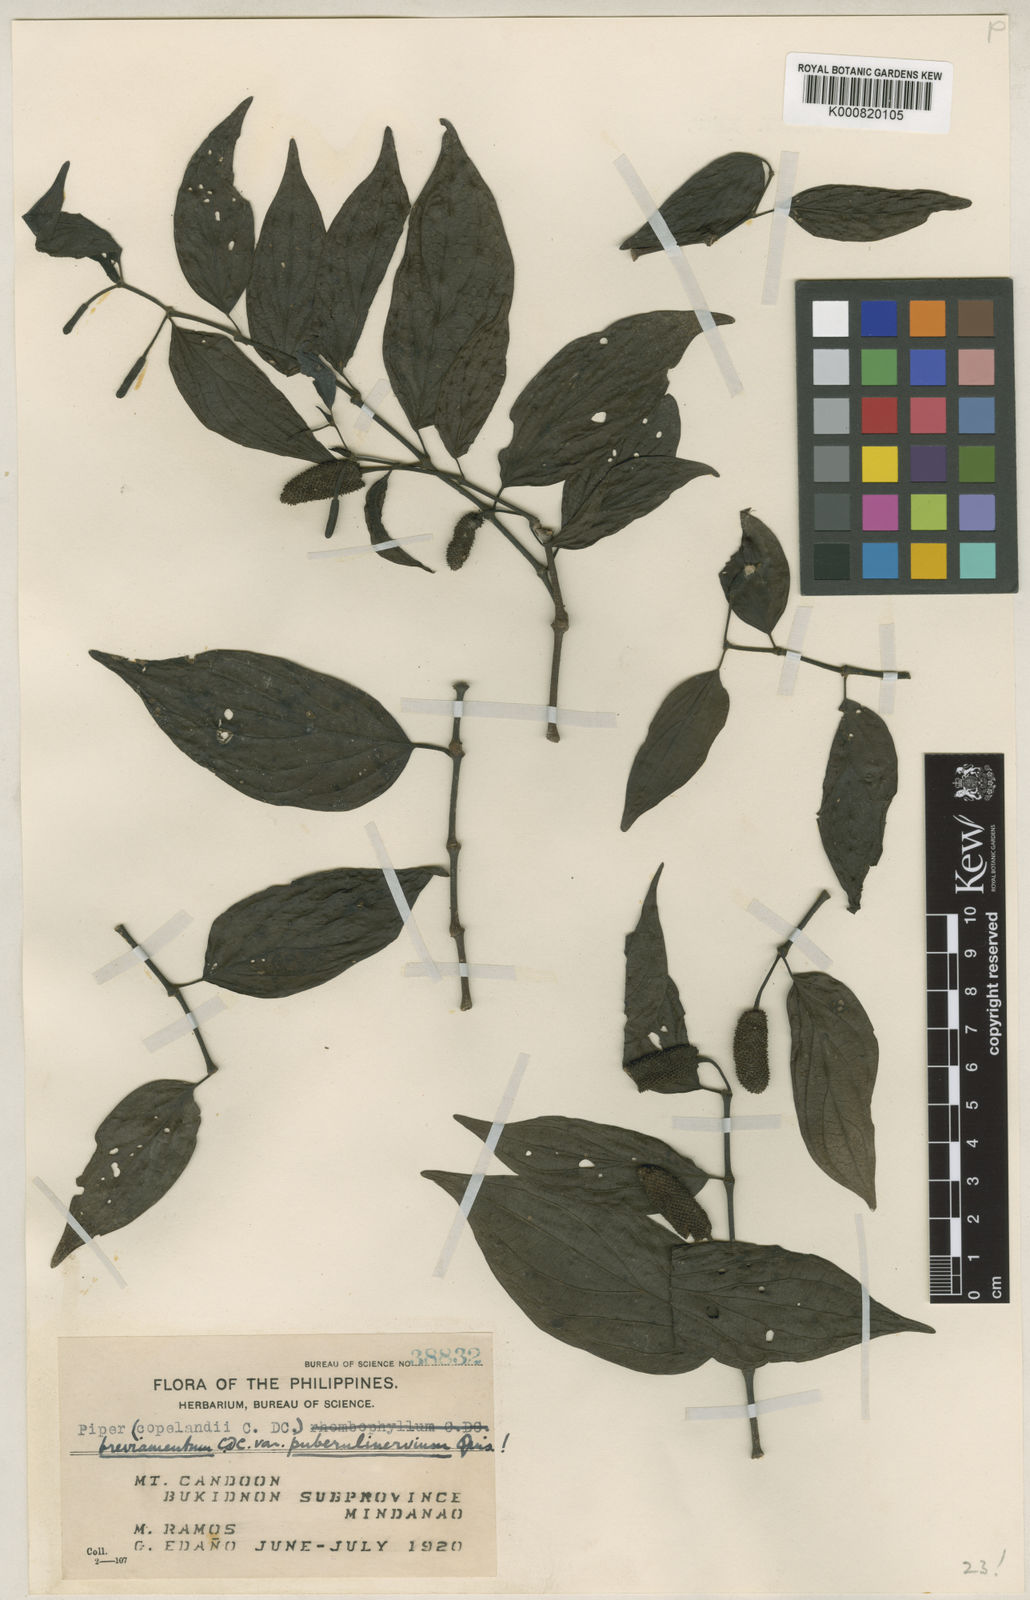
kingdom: Plantae
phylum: Tracheophyta
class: Magnoliopsida
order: Piperales
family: Piperaceae
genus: Piper
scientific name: Piper breviamentum
